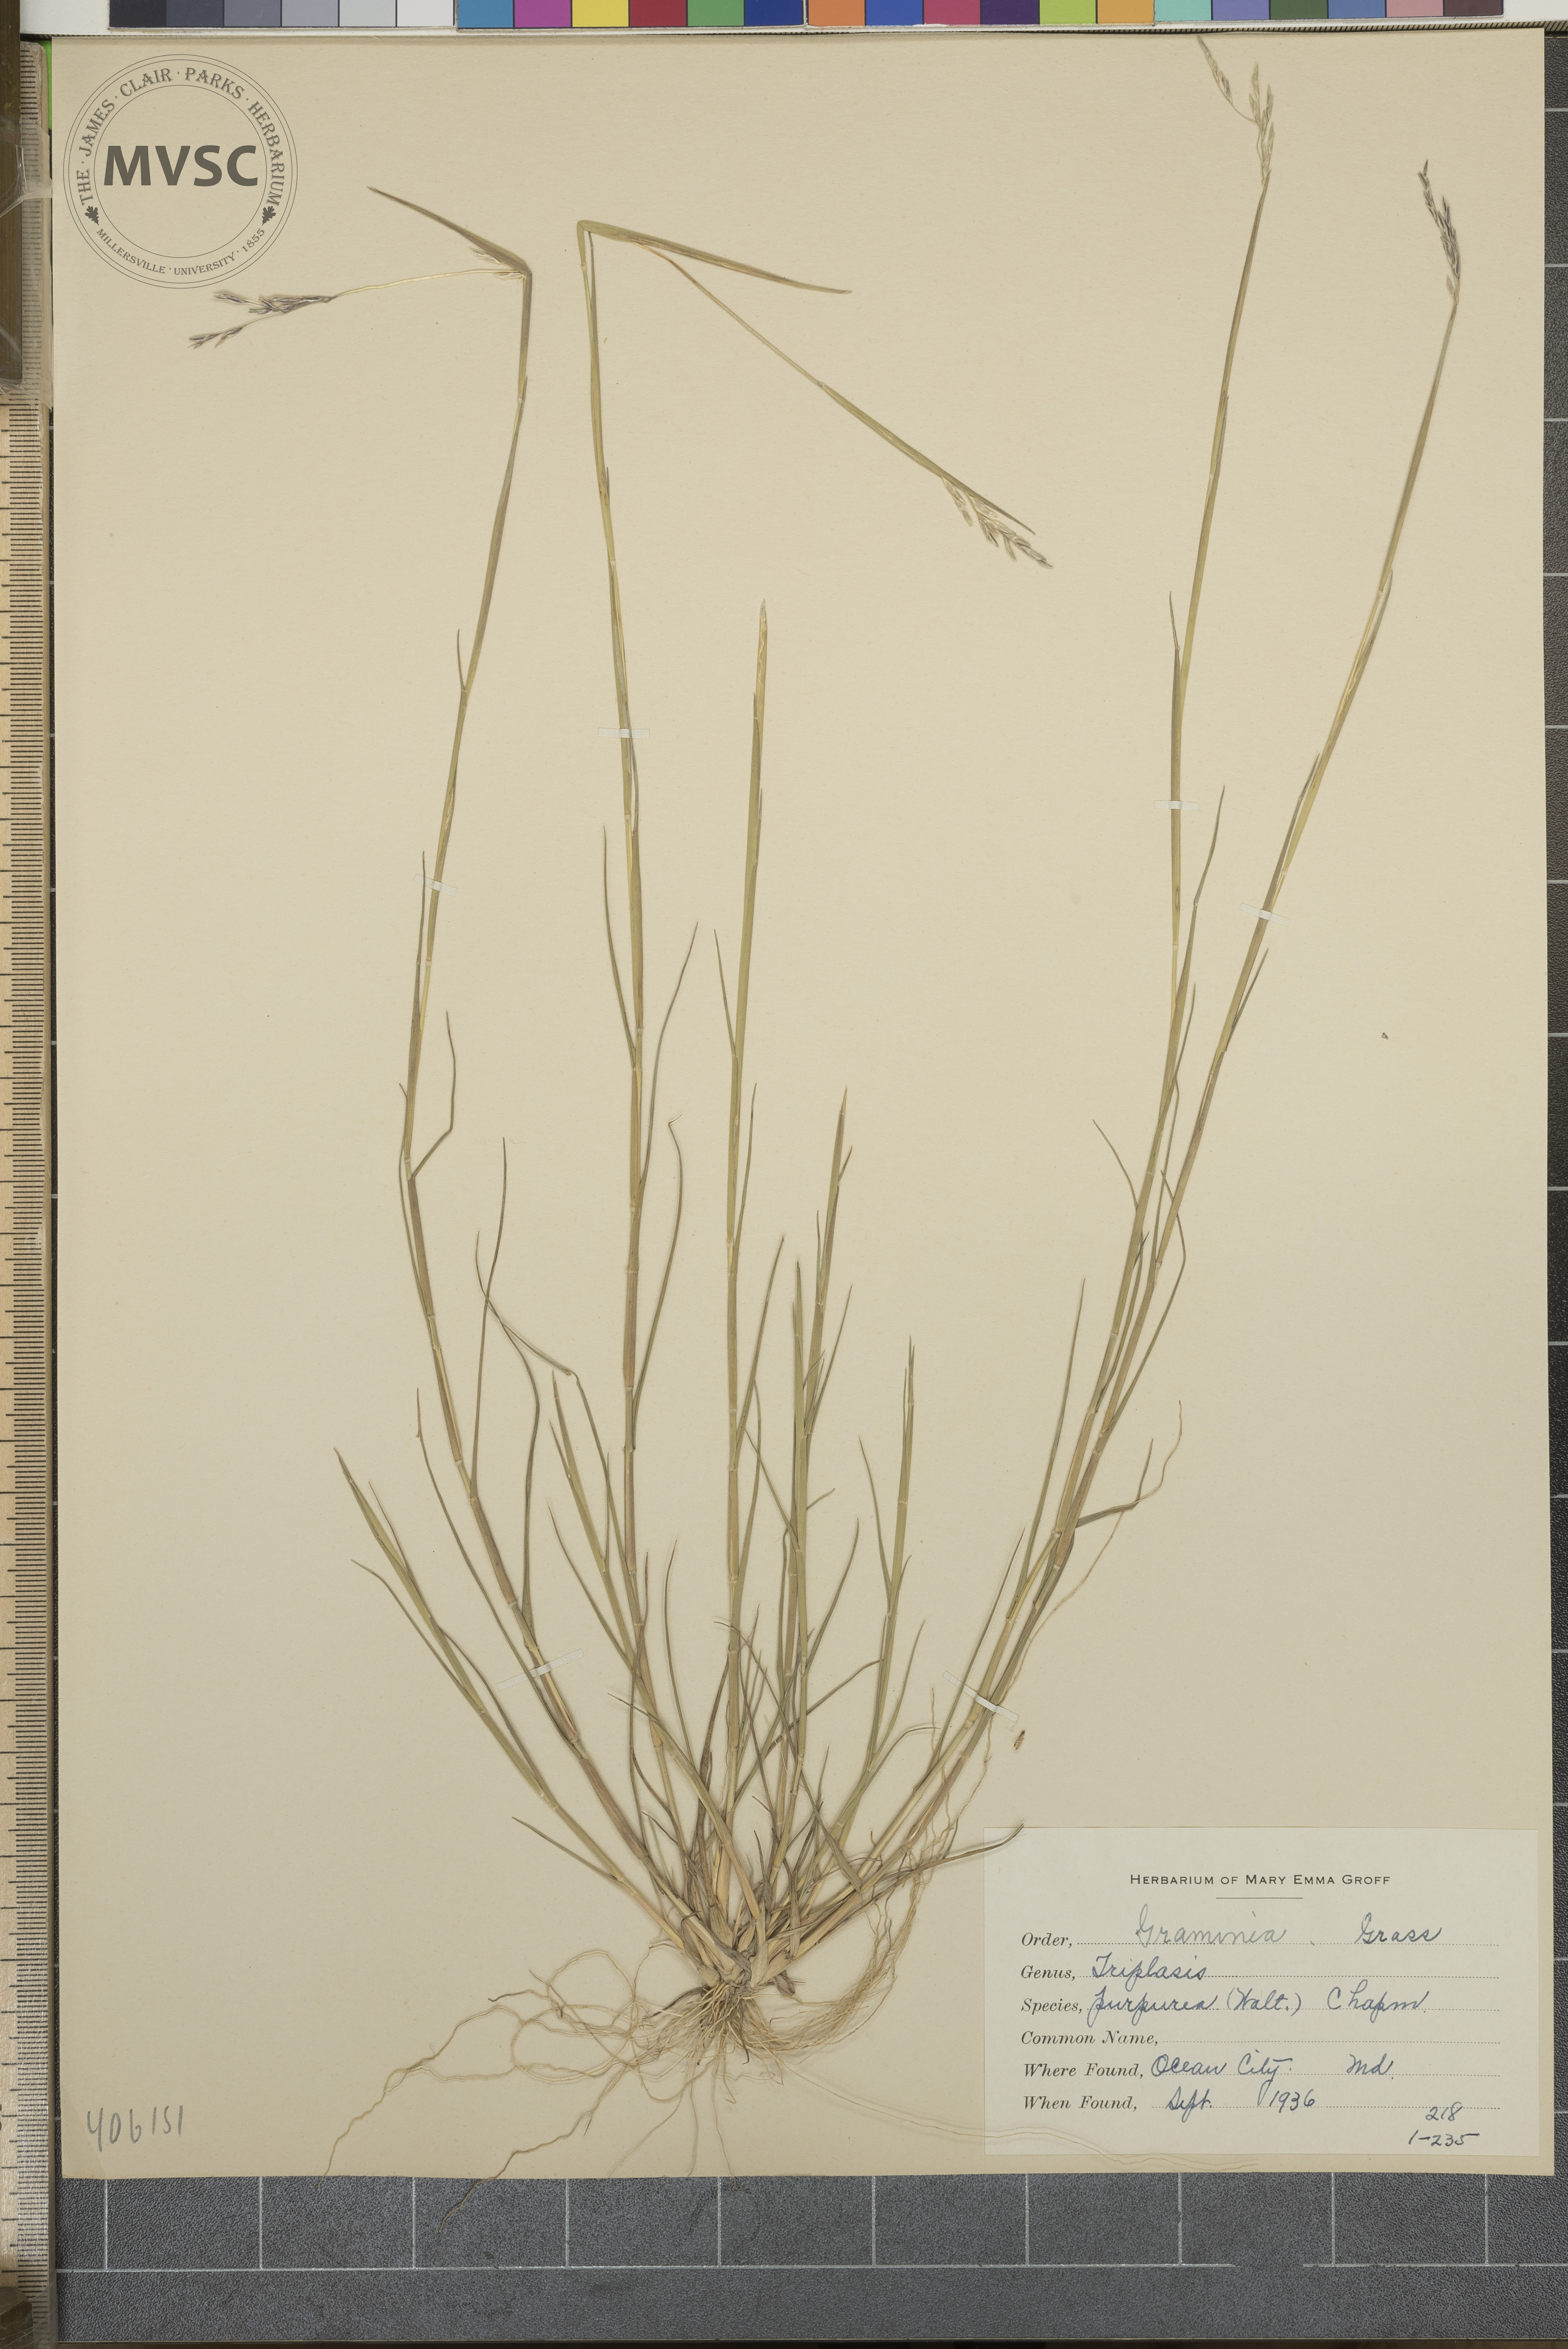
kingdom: Plantae
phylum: Tracheophyta
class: Liliopsida
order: Poales
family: Poaceae
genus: Triplasis
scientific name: Triplasis purpurea
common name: Purple sand grass
